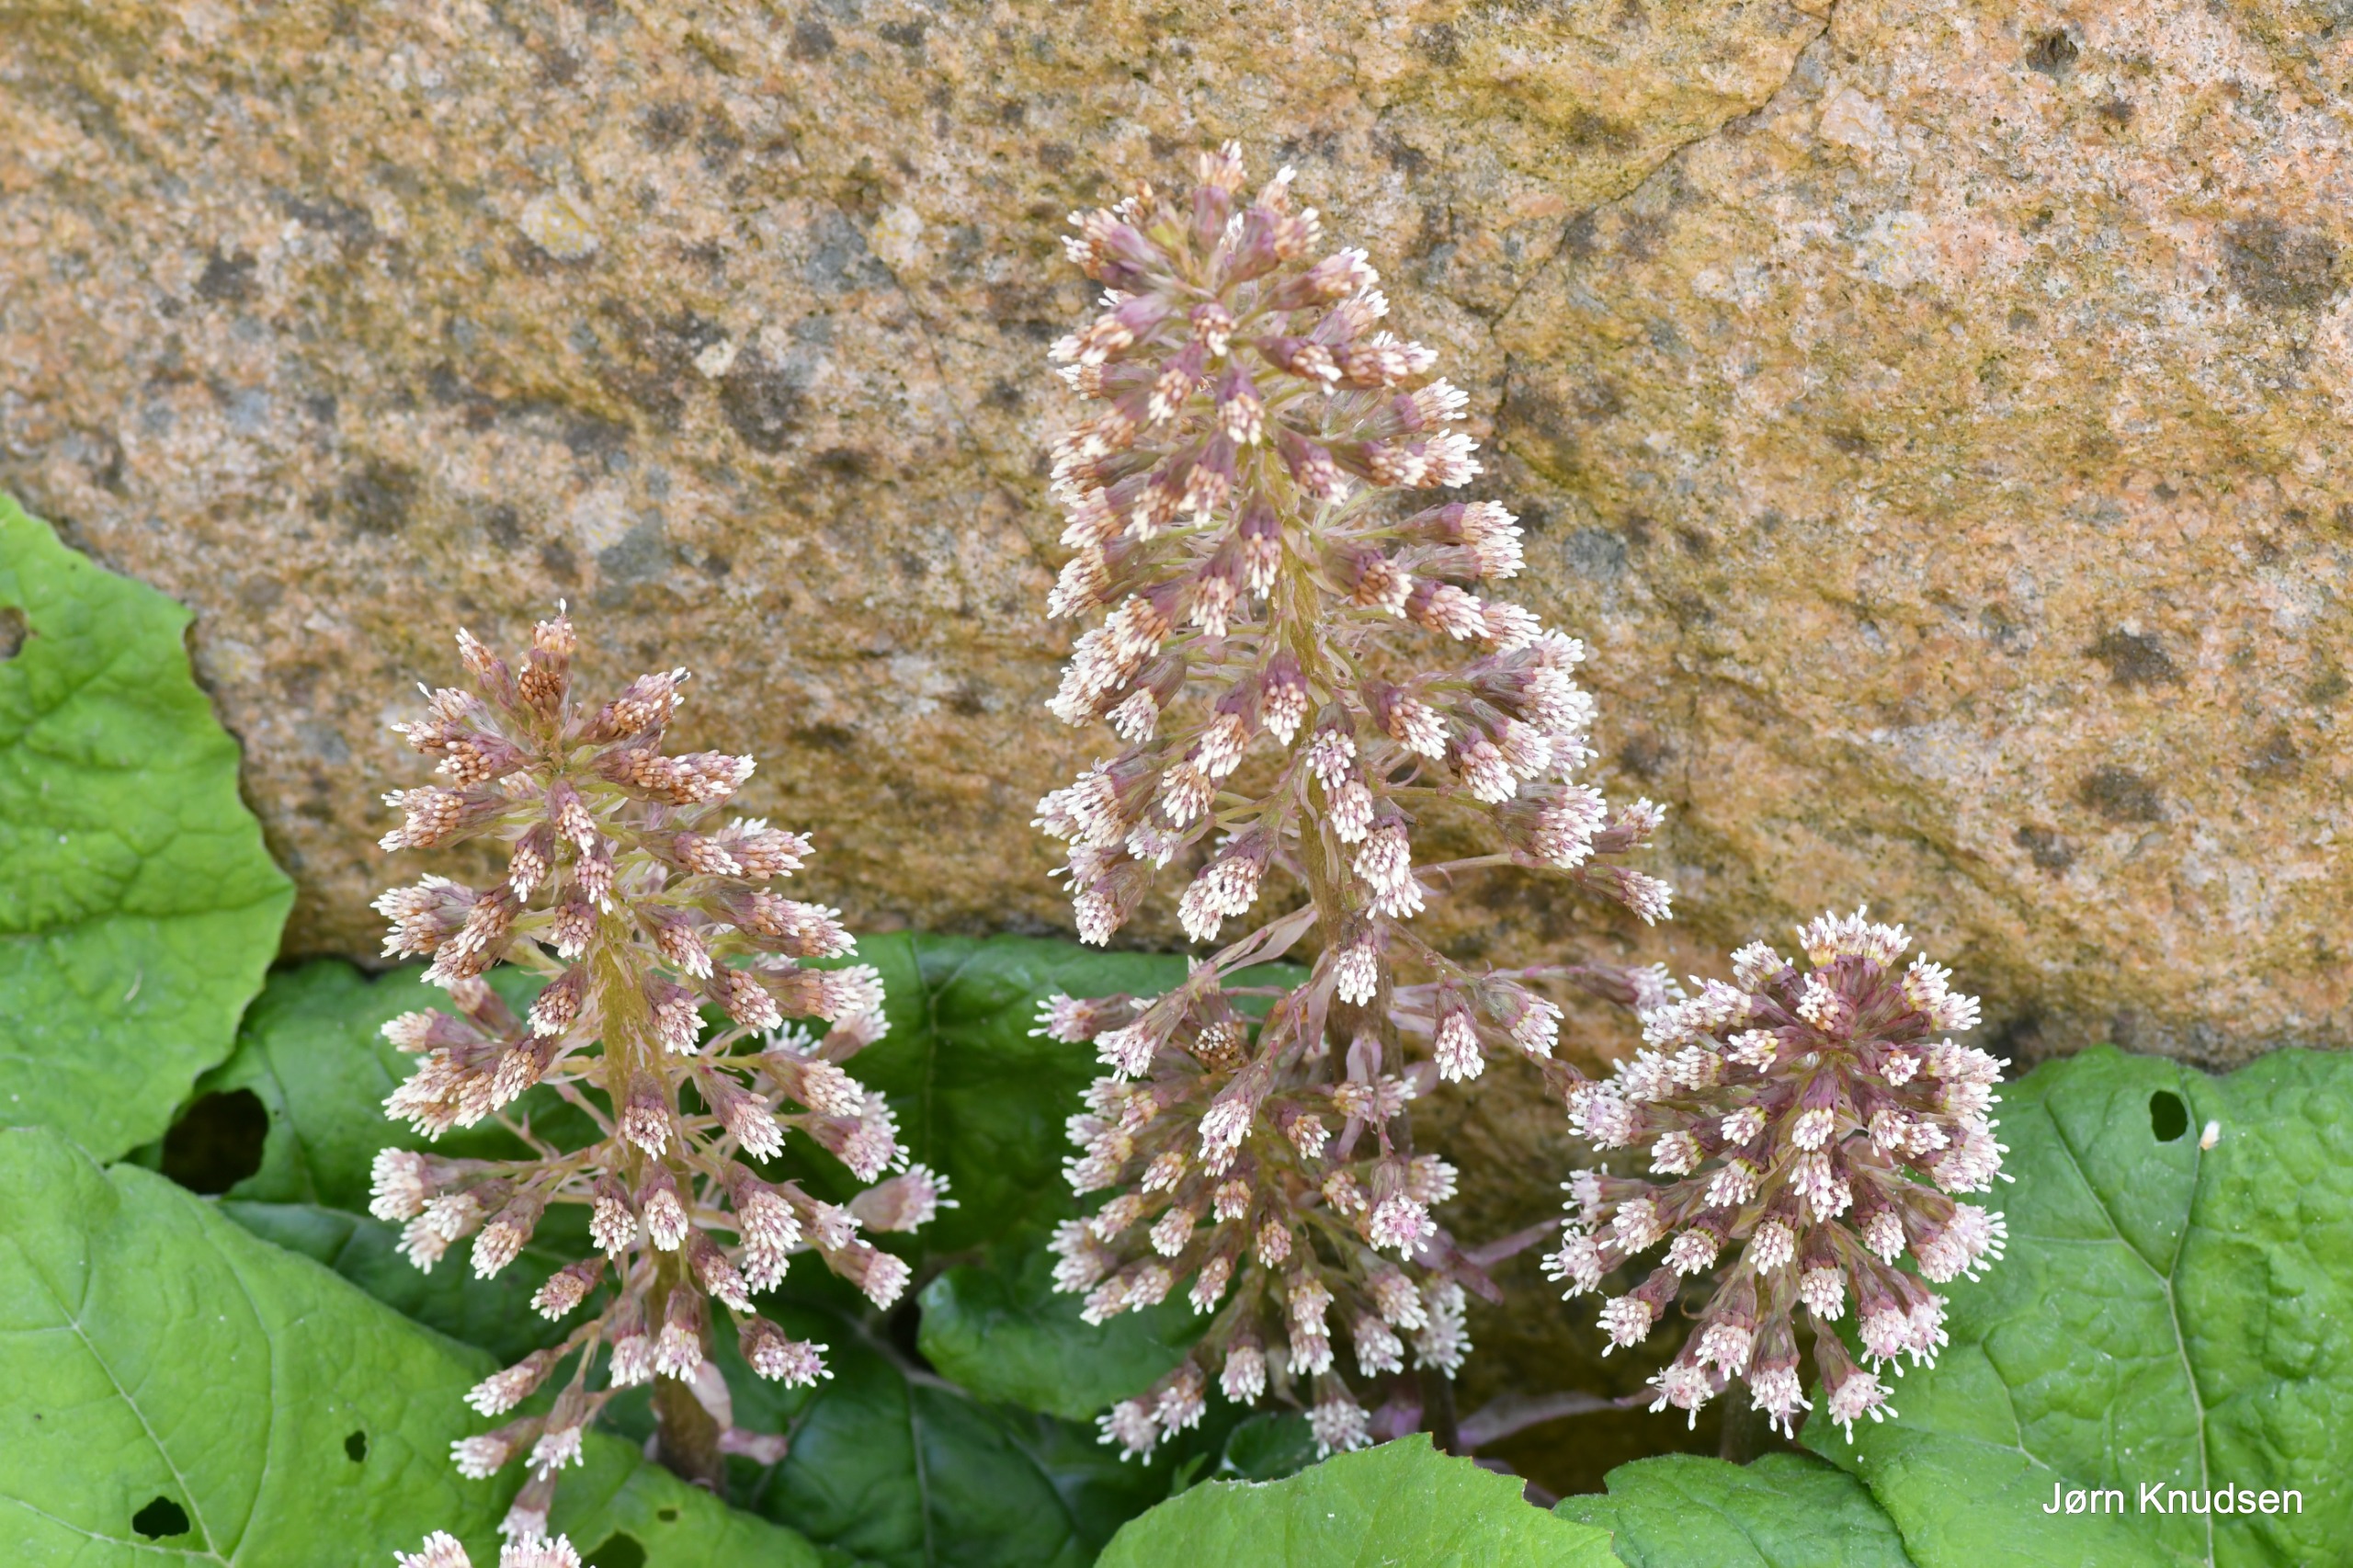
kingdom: Plantae
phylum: Tracheophyta
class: Magnoliopsida
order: Asterales
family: Asteraceae
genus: Petasites
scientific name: Petasites hybridus
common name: Rød hestehov
